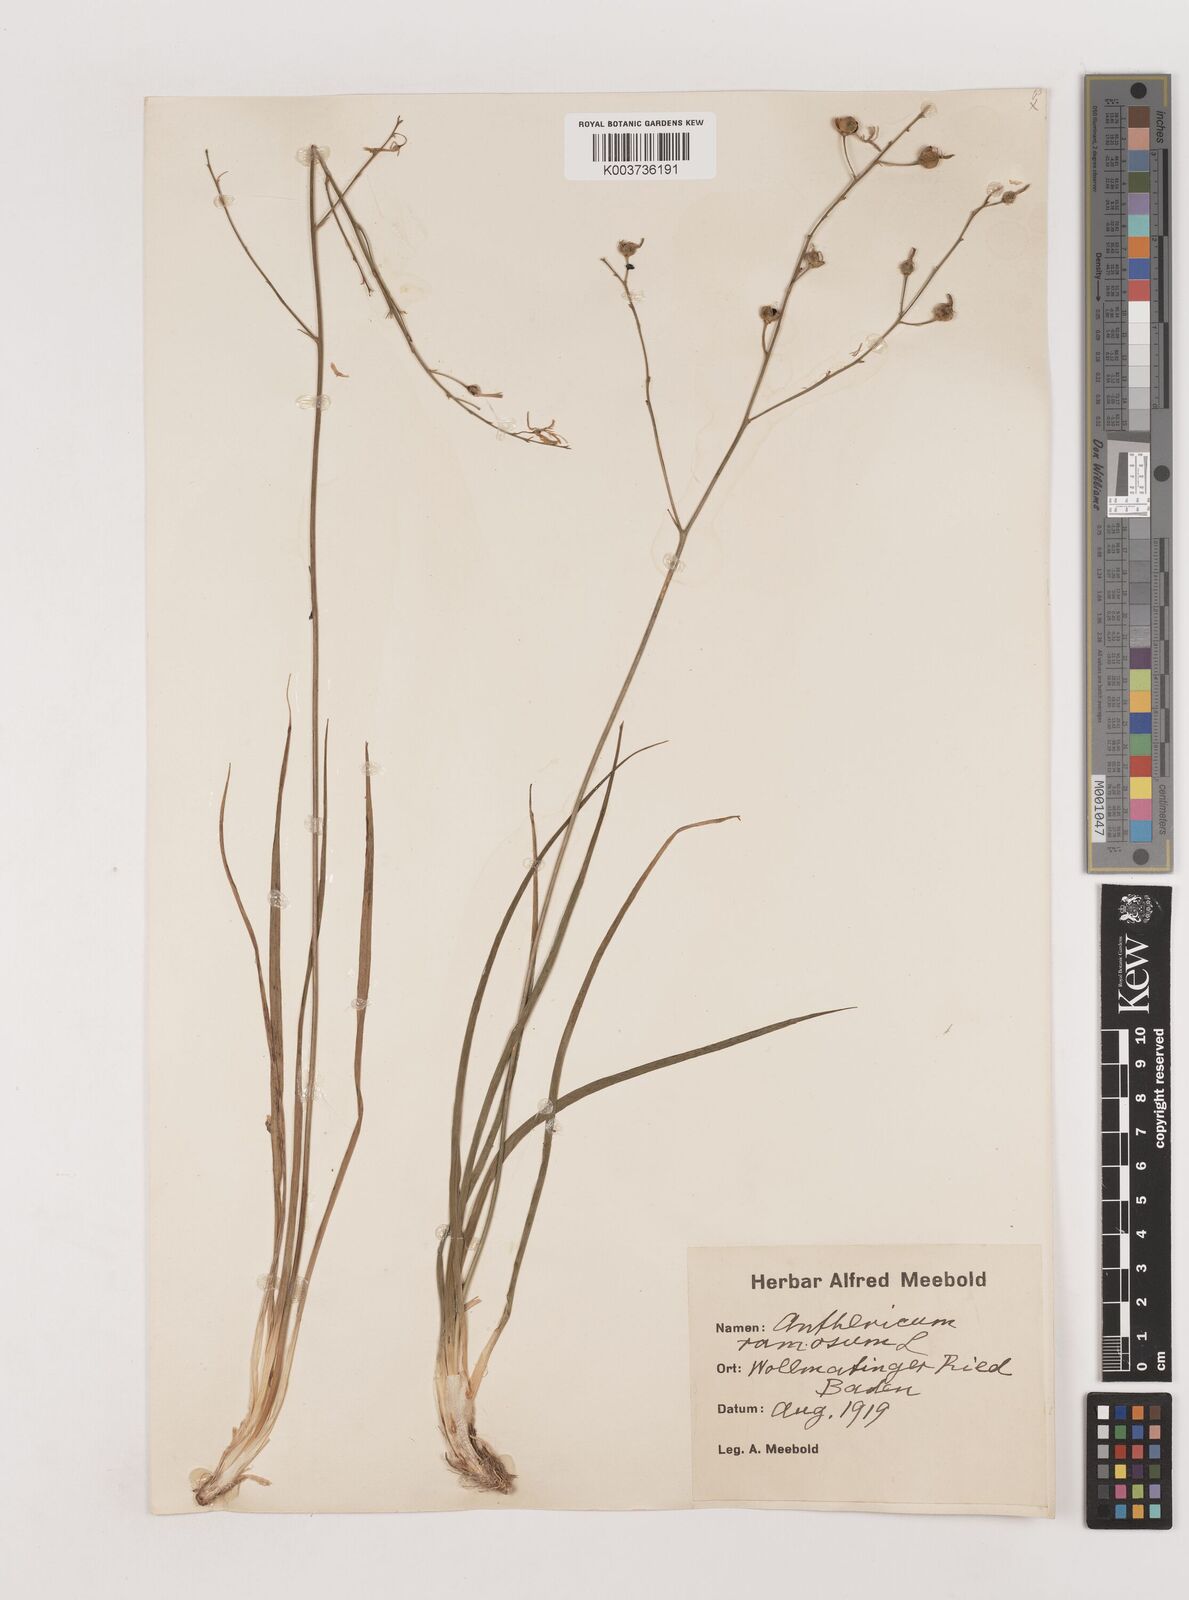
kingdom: Plantae
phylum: Tracheophyta
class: Liliopsida
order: Asparagales
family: Asparagaceae
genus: Anthericum
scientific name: Anthericum ramosum
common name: Branched st. bernard's-lily
